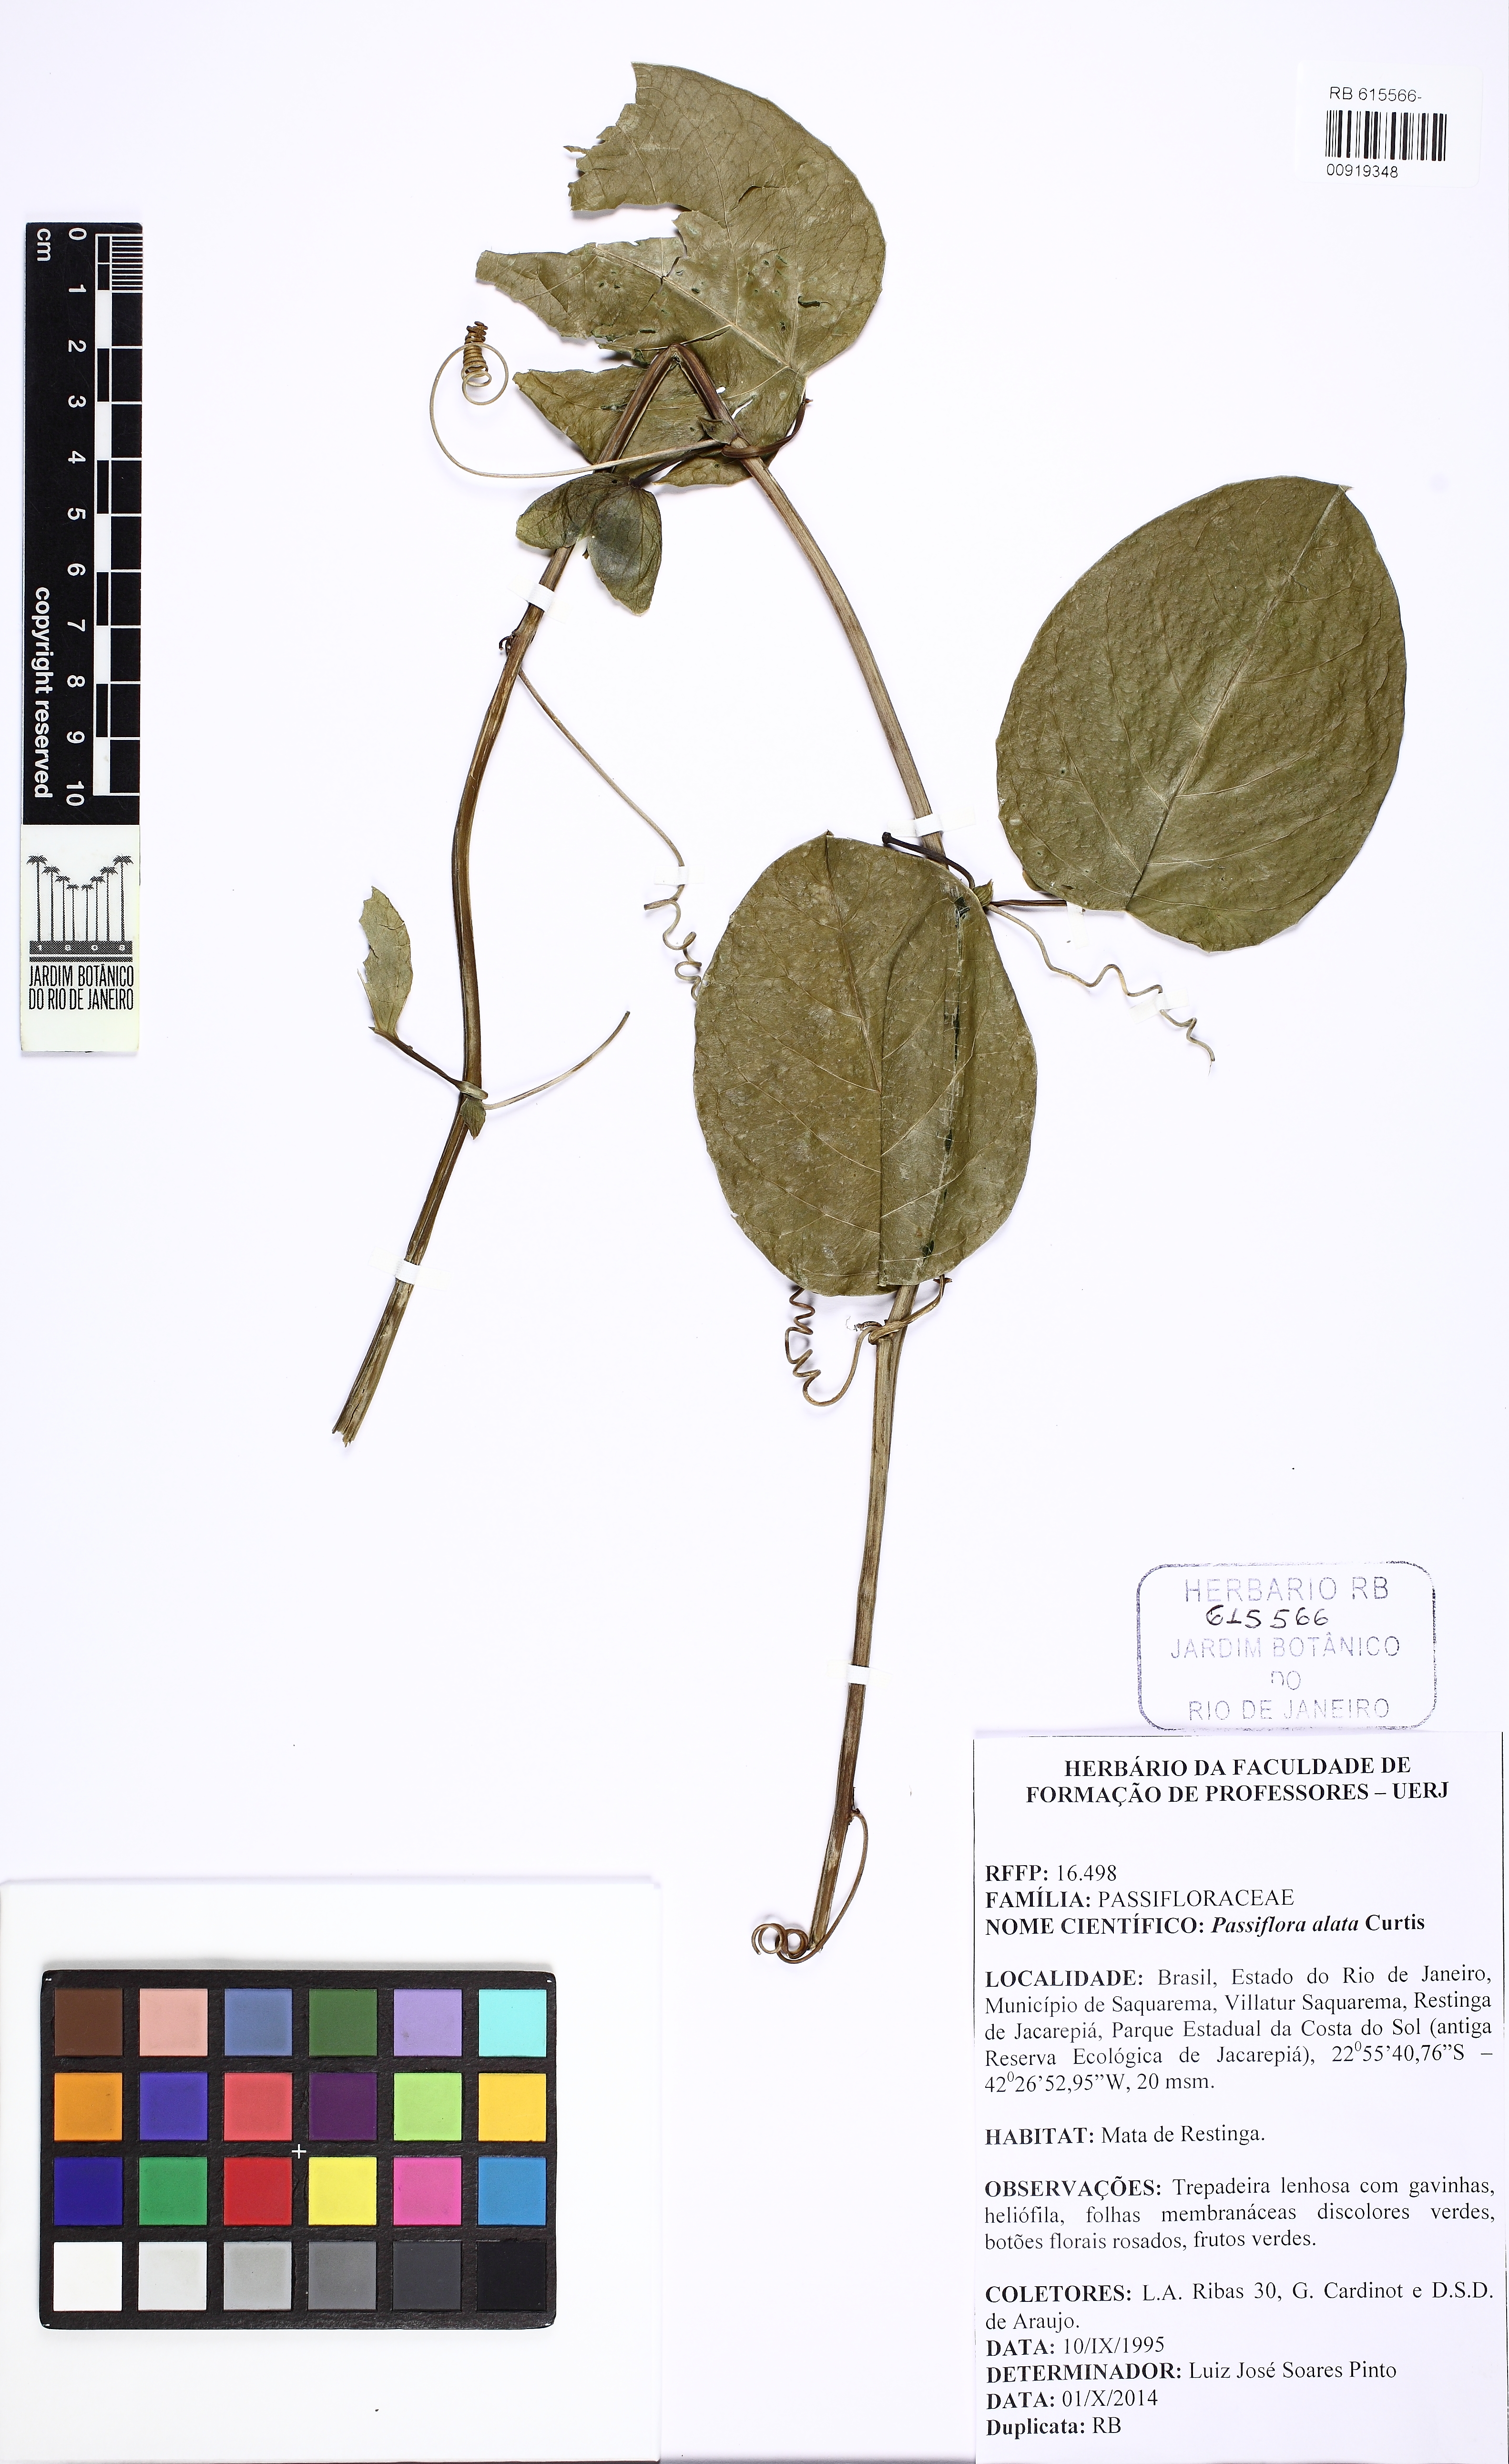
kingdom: Plantae
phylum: Tracheophyta
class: Magnoliopsida
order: Malpighiales
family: Passifloraceae
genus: Passiflora
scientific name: Passiflora alata
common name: Wing-stemmed passion flower
